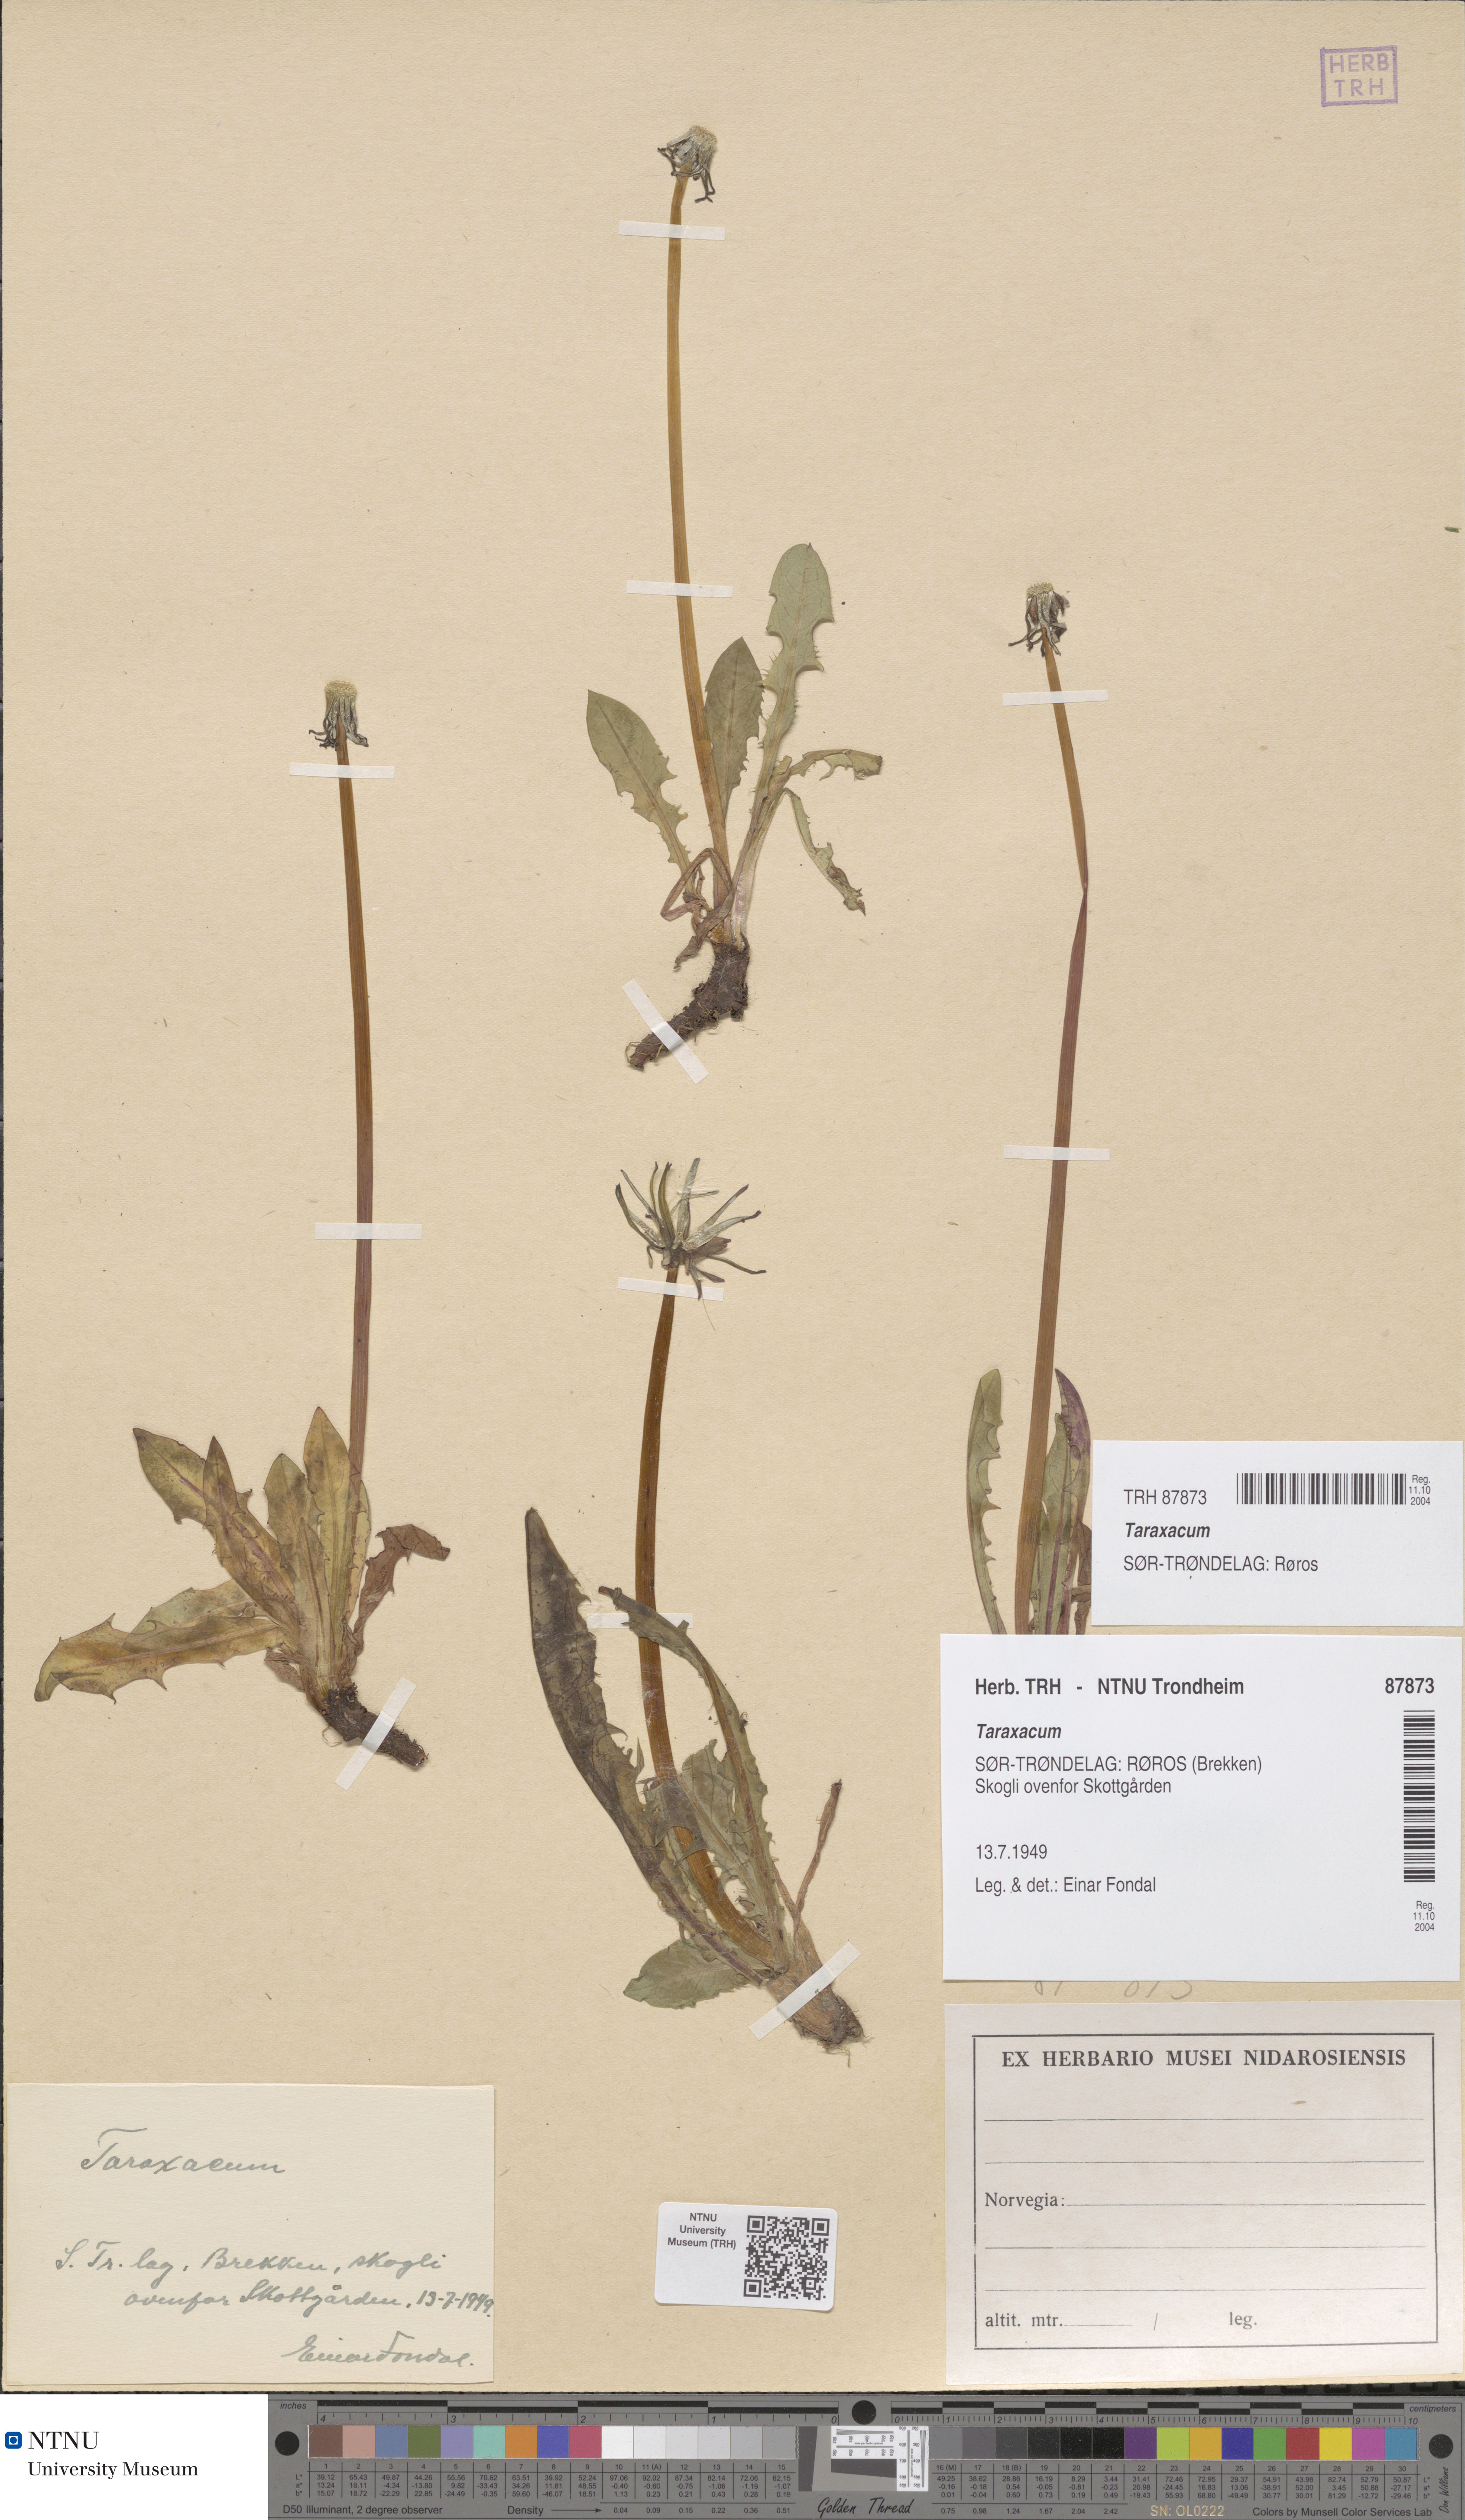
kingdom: Plantae
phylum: Tracheophyta
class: Magnoliopsida
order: Asterales
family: Asteraceae
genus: Taraxacum
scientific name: Taraxacum
